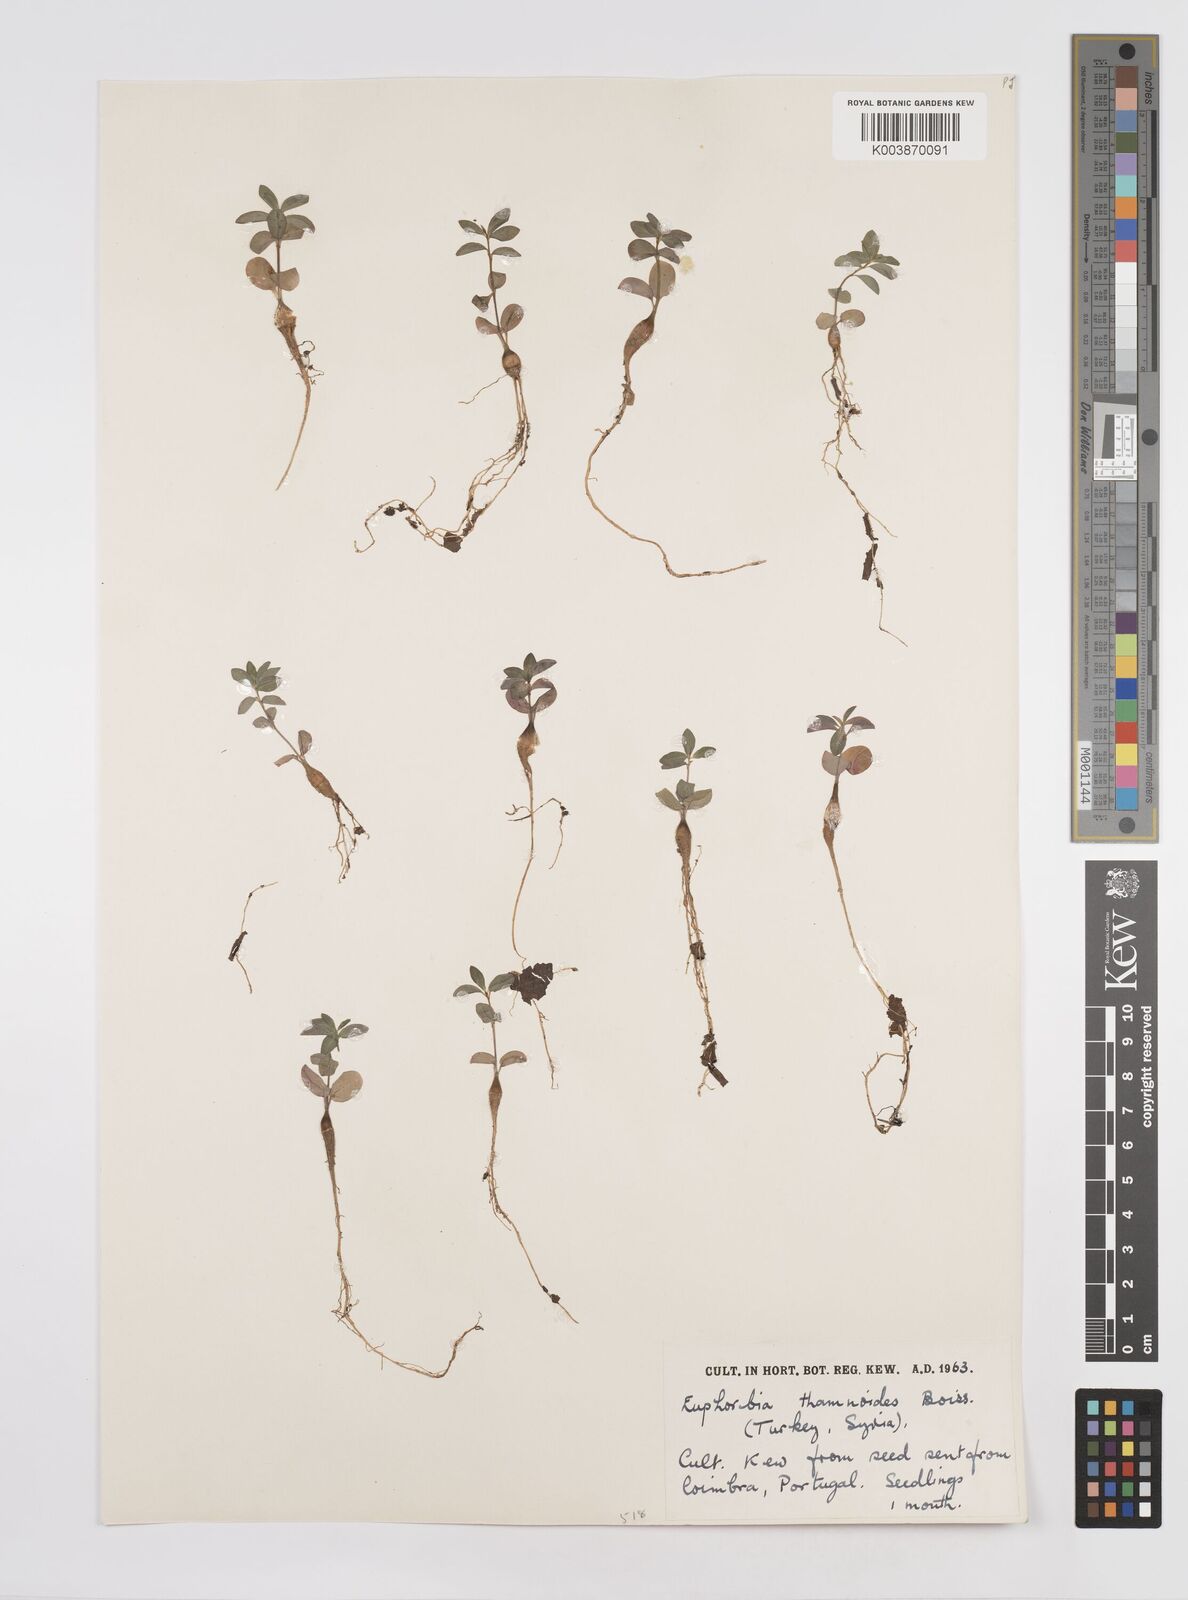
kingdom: Plantae
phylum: Tracheophyta
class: Magnoliopsida
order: Malpighiales
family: Euphorbiaceae
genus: Euphorbia
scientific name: Euphorbia hierosolymitana
